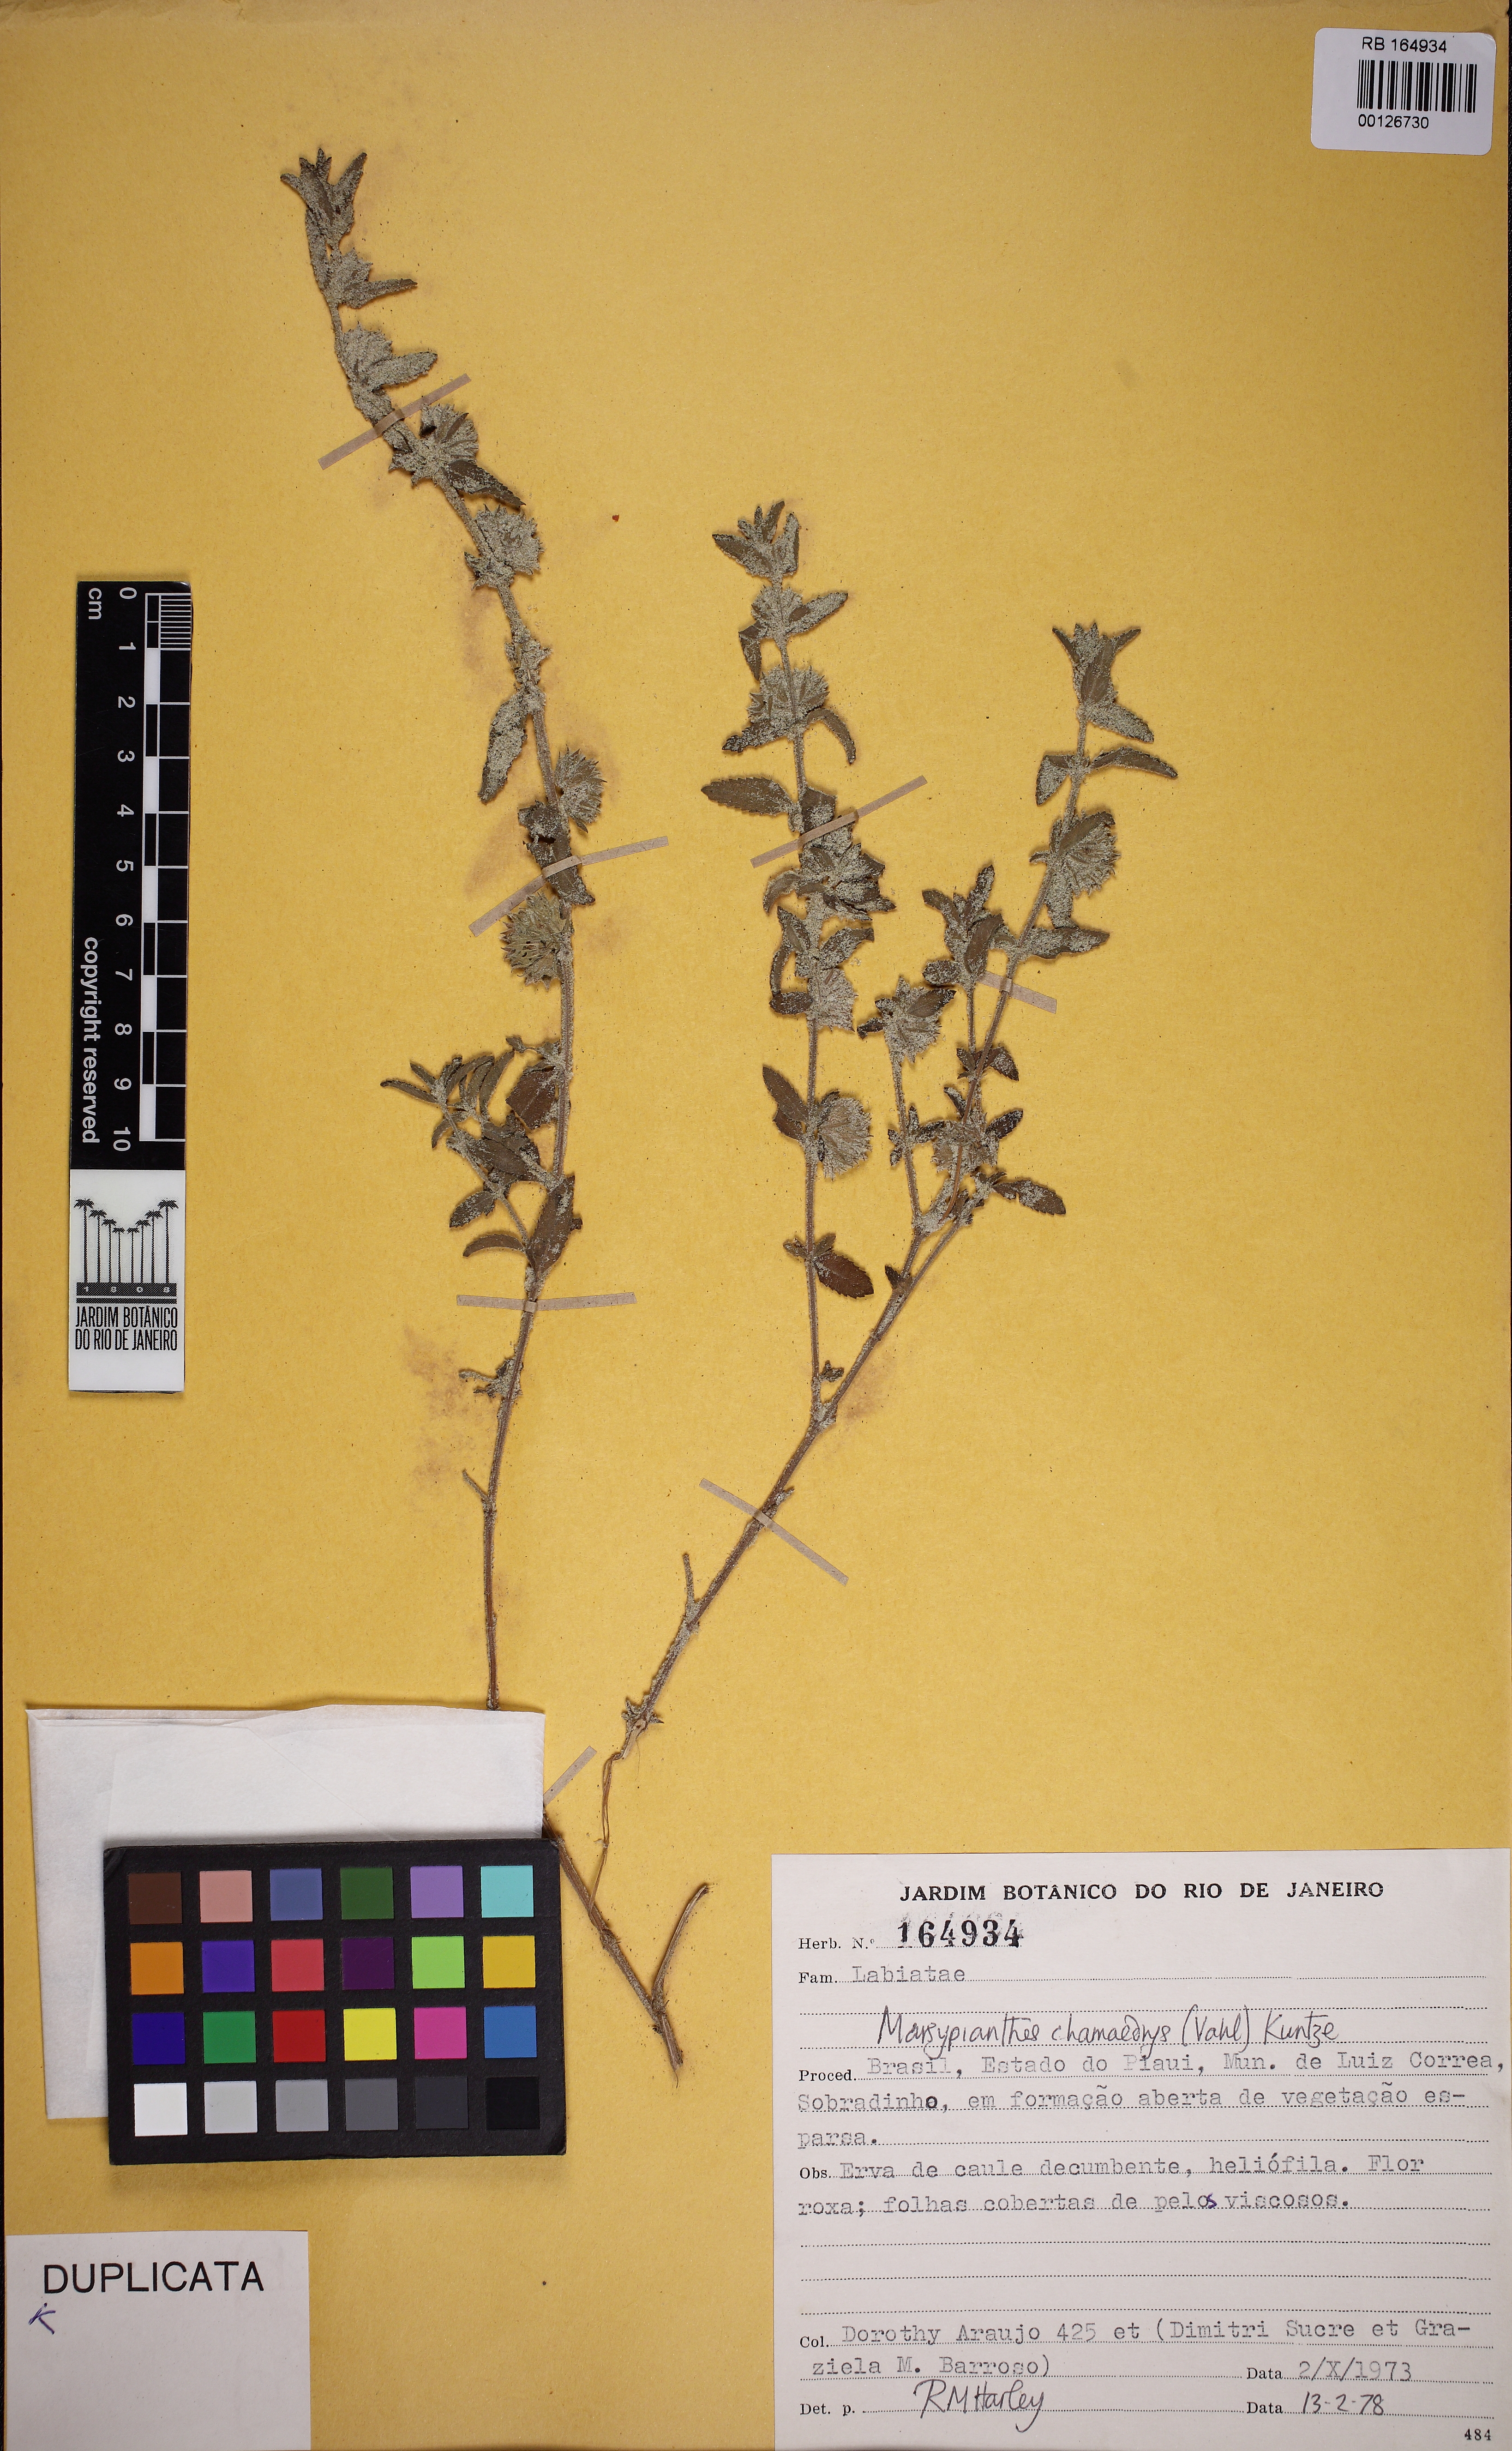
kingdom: Plantae
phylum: Tracheophyta
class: Magnoliopsida
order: Lamiales
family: Lamiaceae
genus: Marsypianthes
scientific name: Marsypianthes chamaedrys
